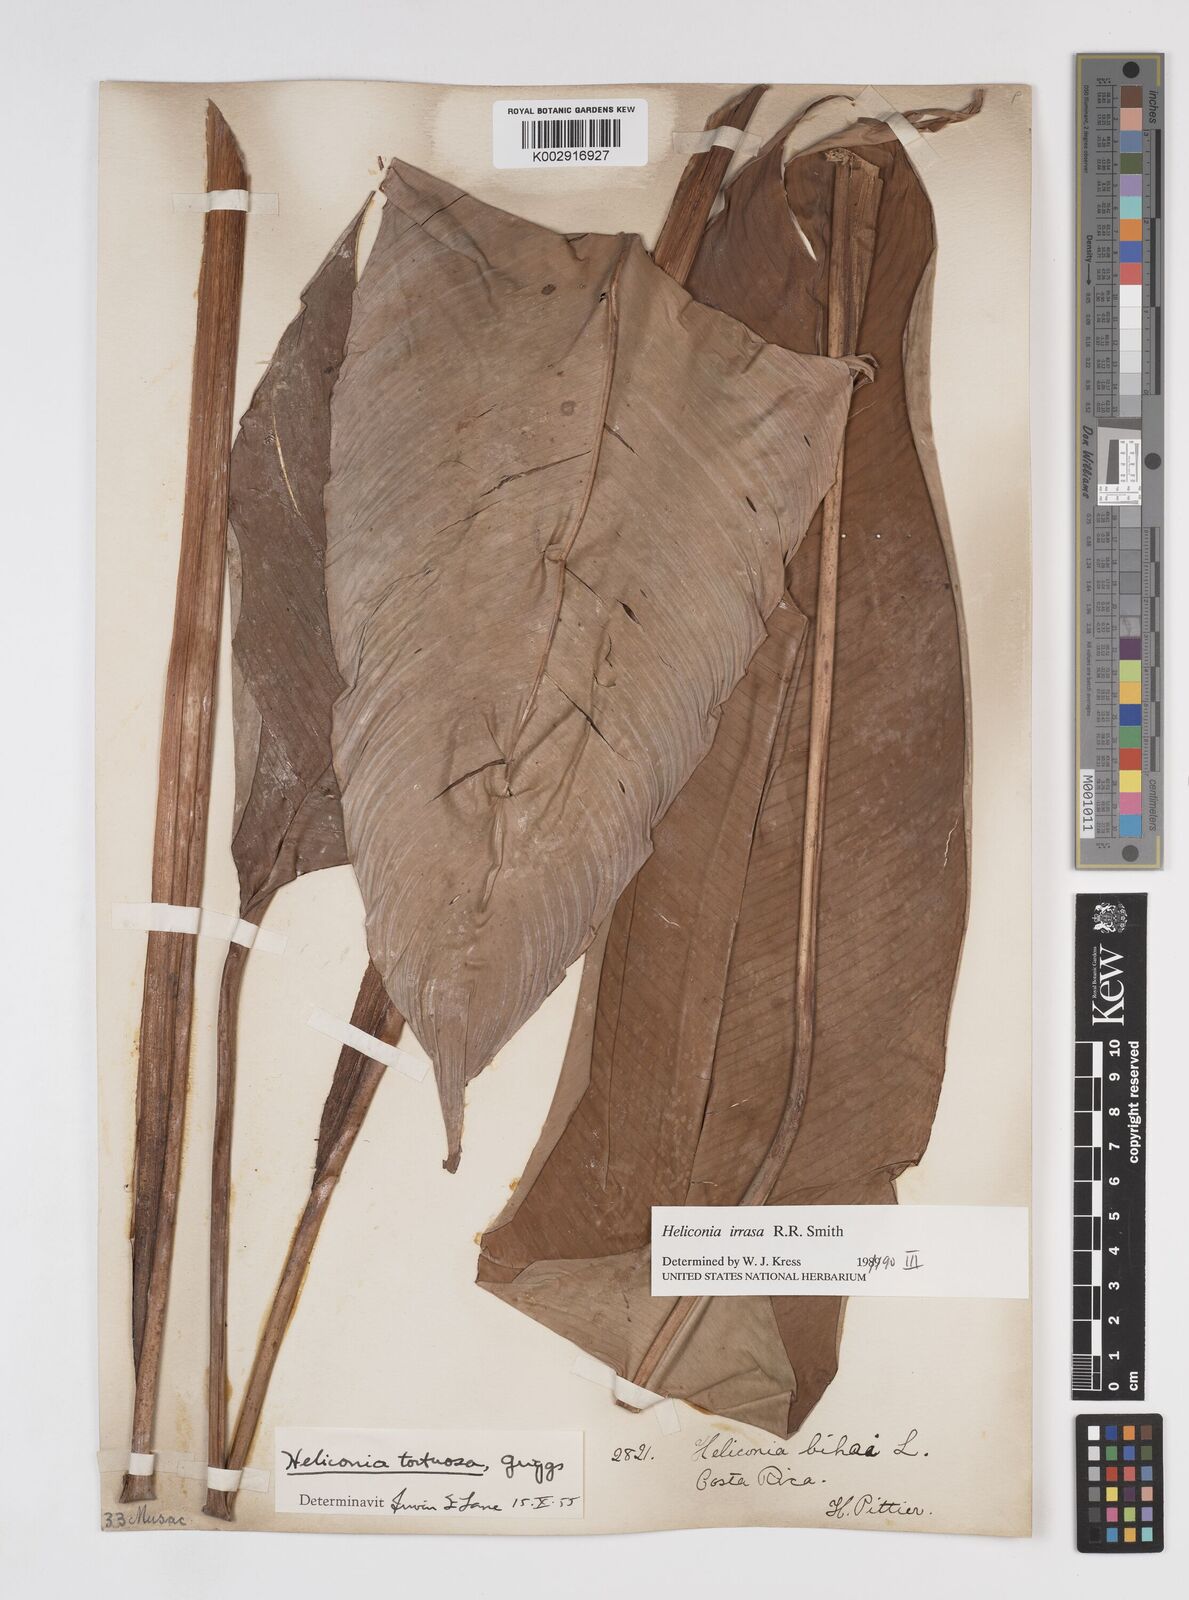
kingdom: Plantae
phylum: Tracheophyta
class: Liliopsida
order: Zingiberales
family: Heliconiaceae
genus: Heliconia
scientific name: Heliconia irrasa
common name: Wild plantain
